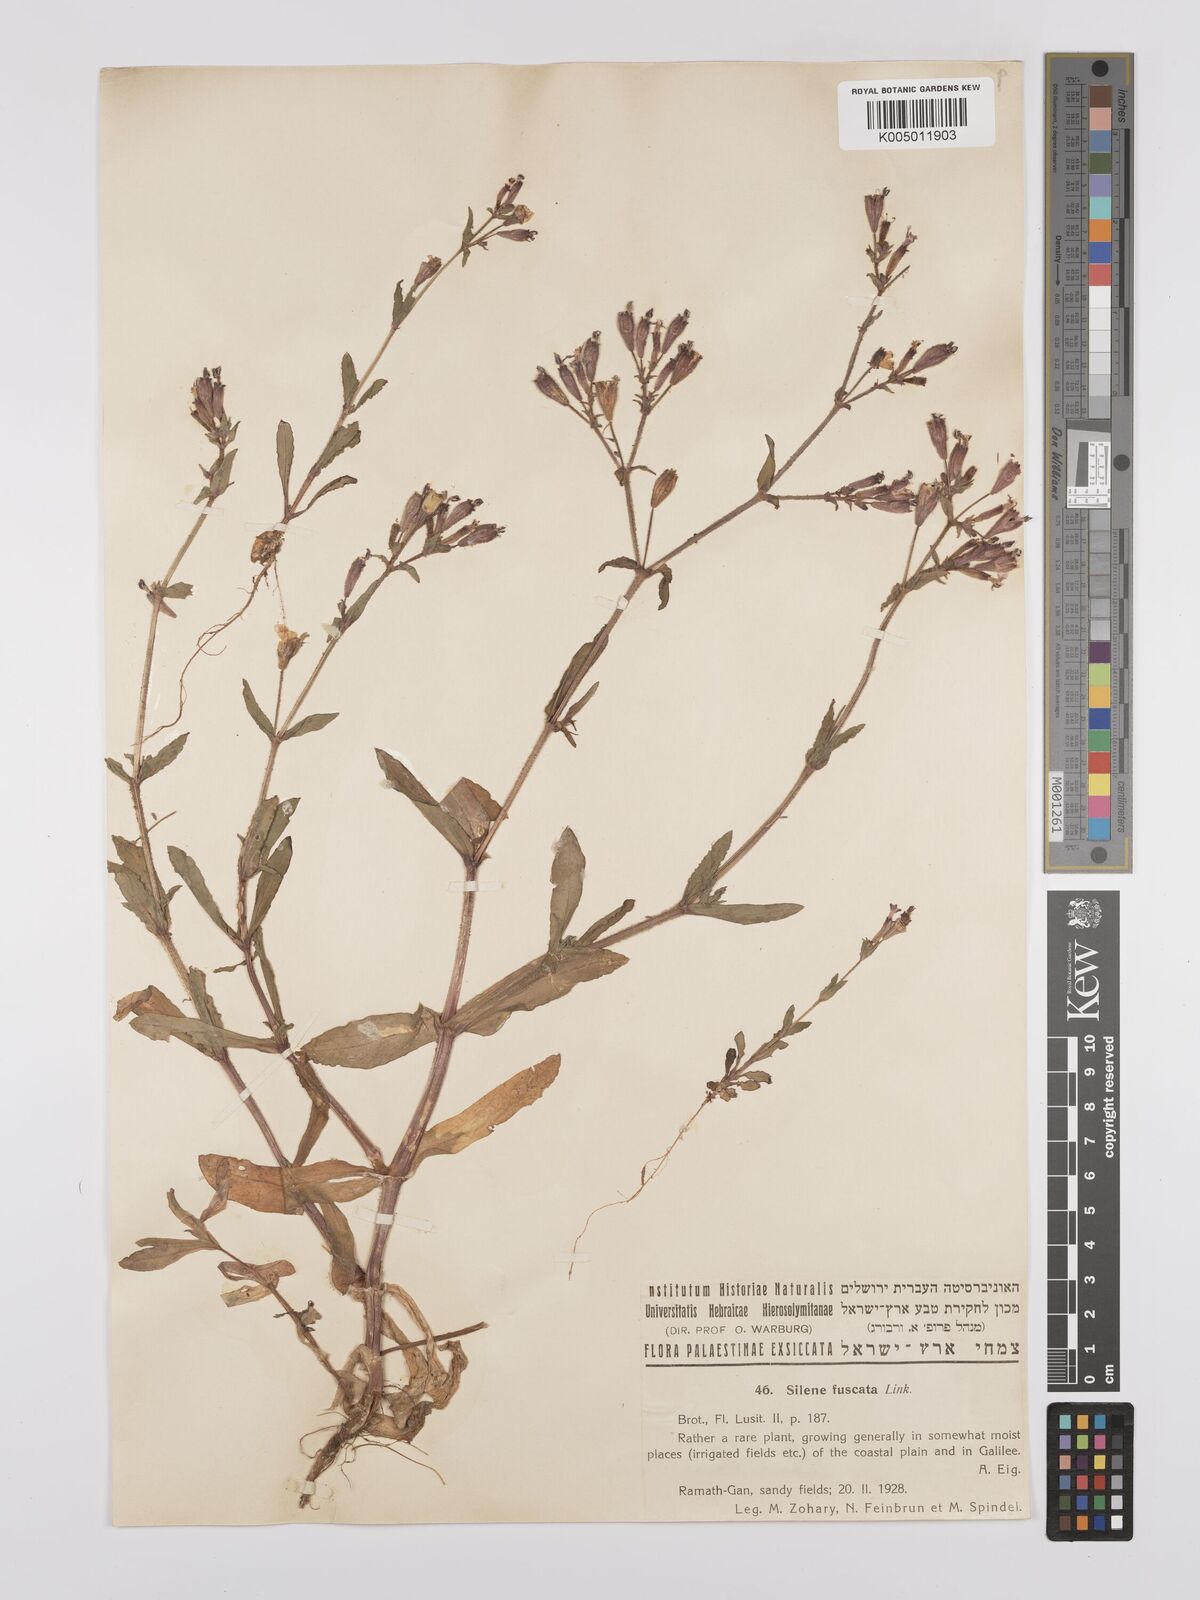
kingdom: Plantae
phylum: Tracheophyta
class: Magnoliopsida
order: Caryophyllales
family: Caryophyllaceae
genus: Silene
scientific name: Silene fuscata
